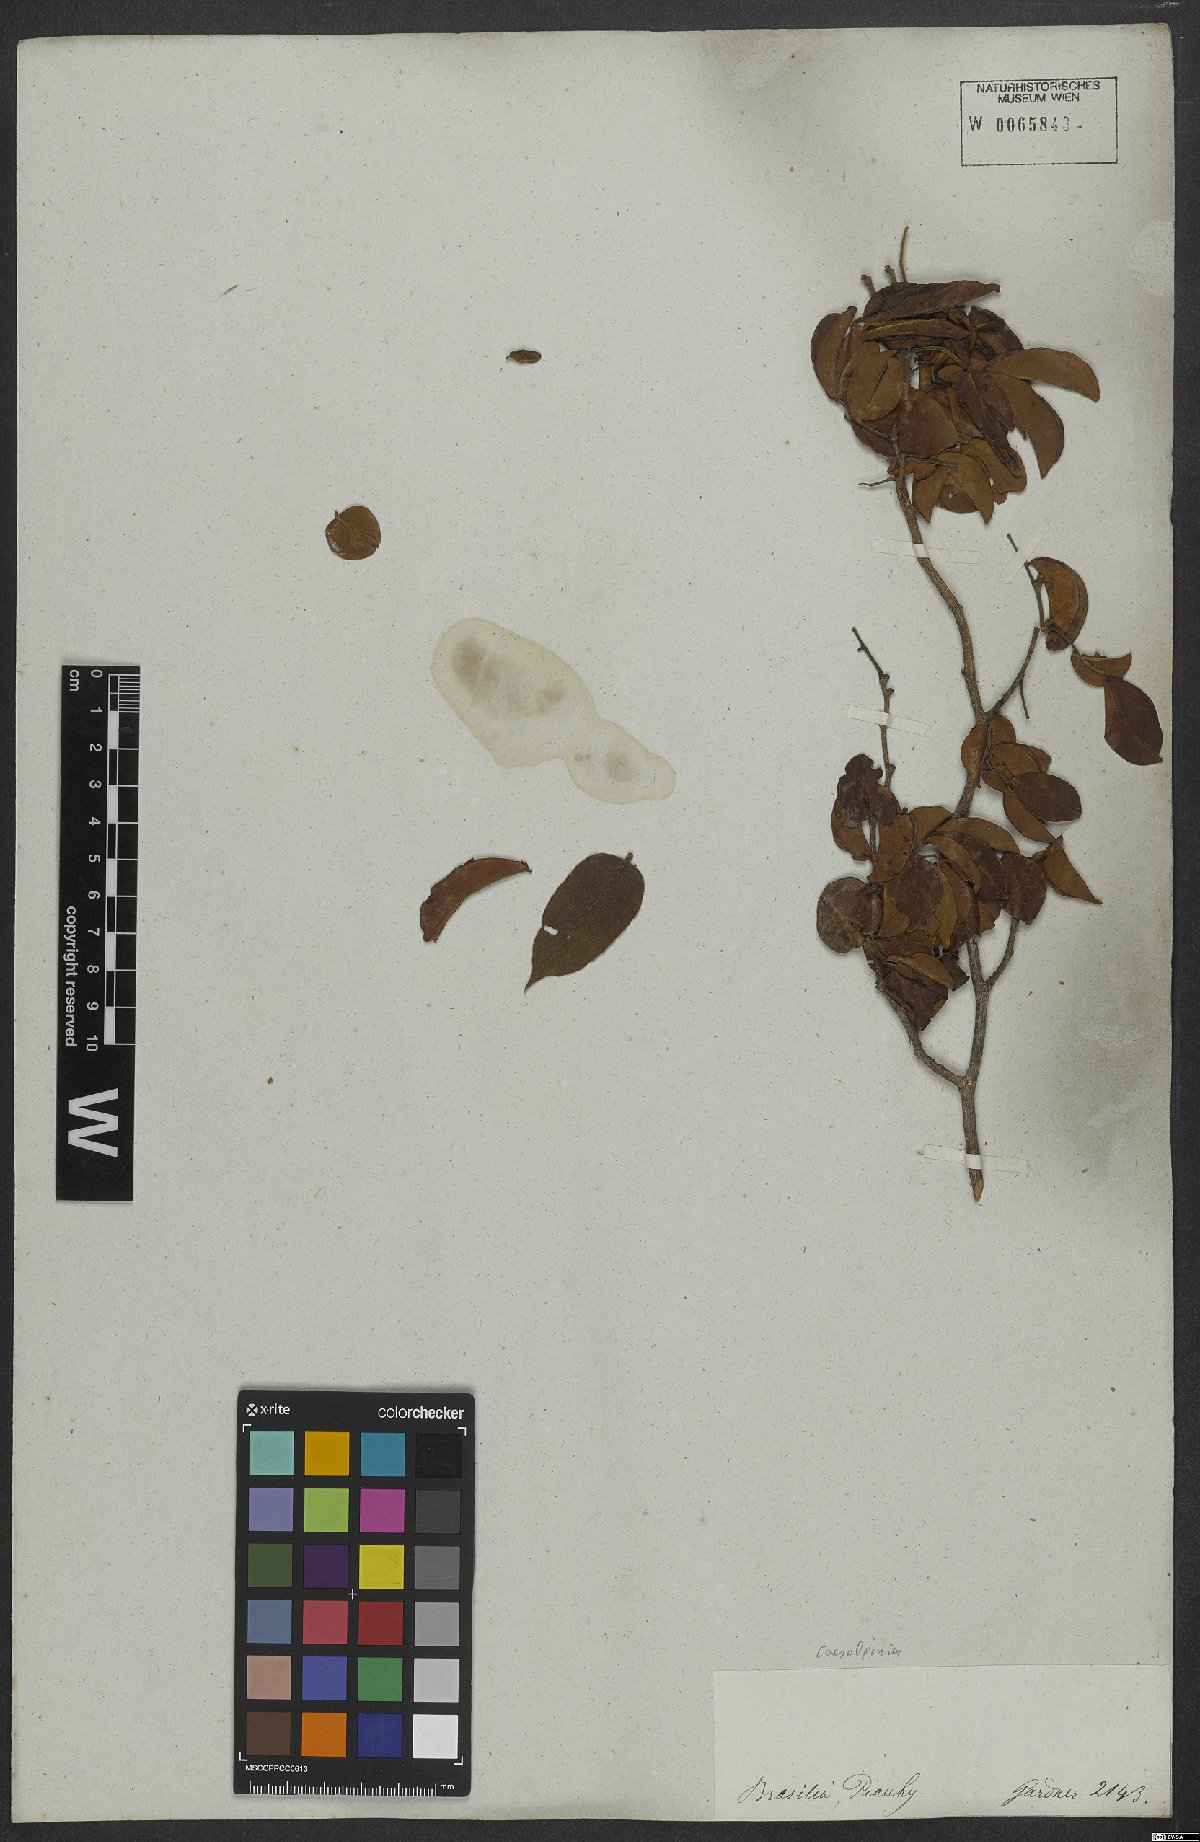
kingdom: Plantae
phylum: Tracheophyta
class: Magnoliopsida
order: Fabales
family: Fabaceae
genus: Caesalpinia
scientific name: Caesalpinia
